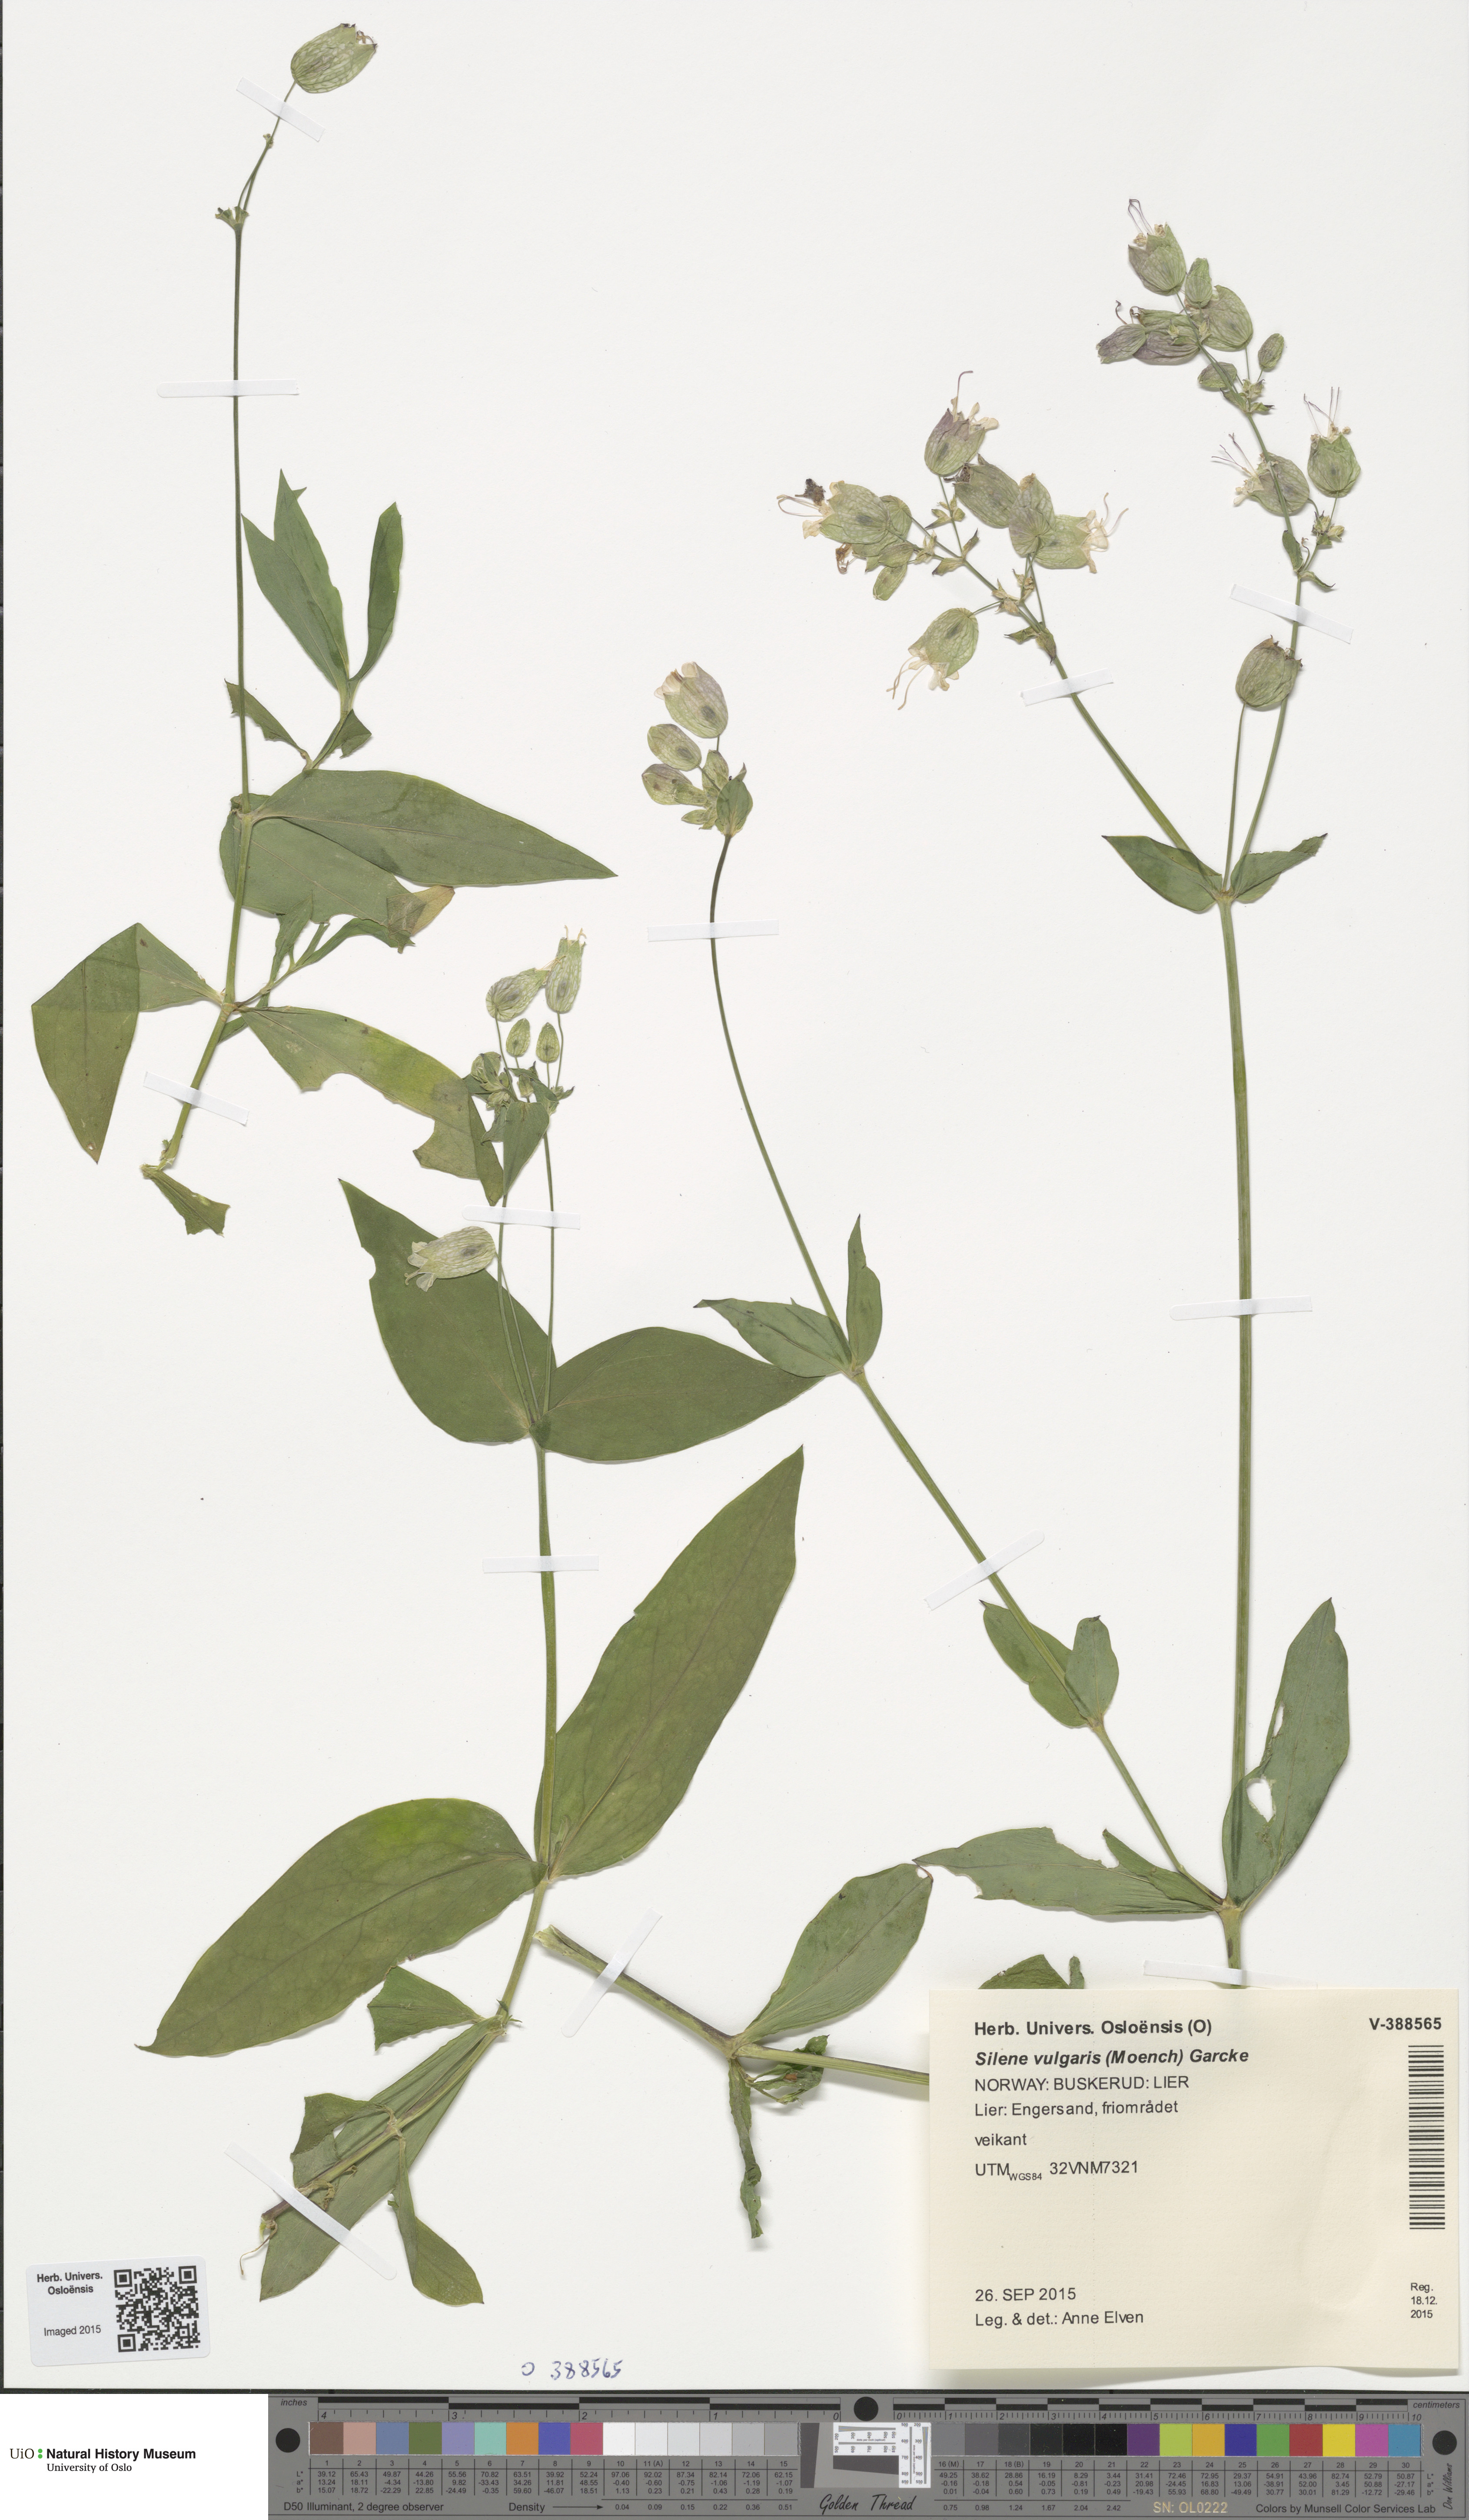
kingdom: Plantae
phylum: Tracheophyta
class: Magnoliopsida
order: Caryophyllales
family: Caryophyllaceae
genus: Silene
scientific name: Silene vulgaris
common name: Bladder campion
